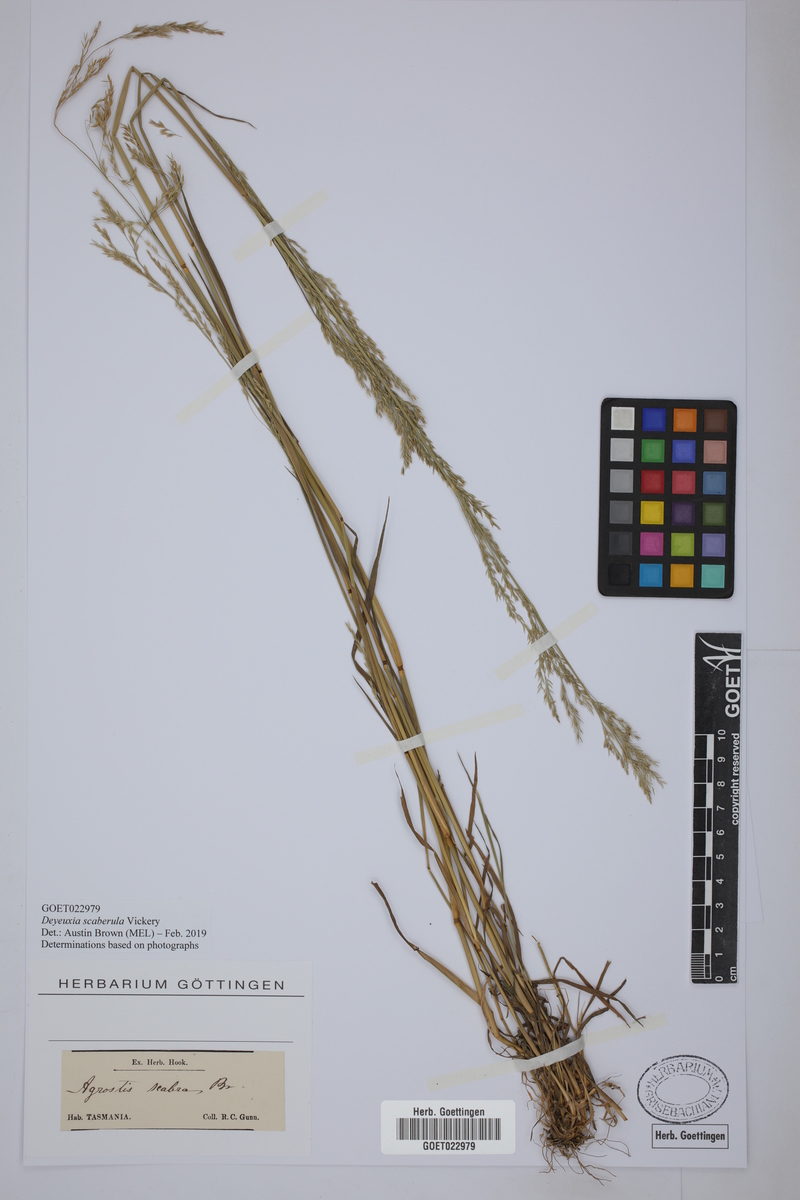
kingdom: Plantae
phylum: Tracheophyta
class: Liliopsida
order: Poales
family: Poaceae
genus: Calamagrostis
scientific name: Calamagrostis austroscaberula
